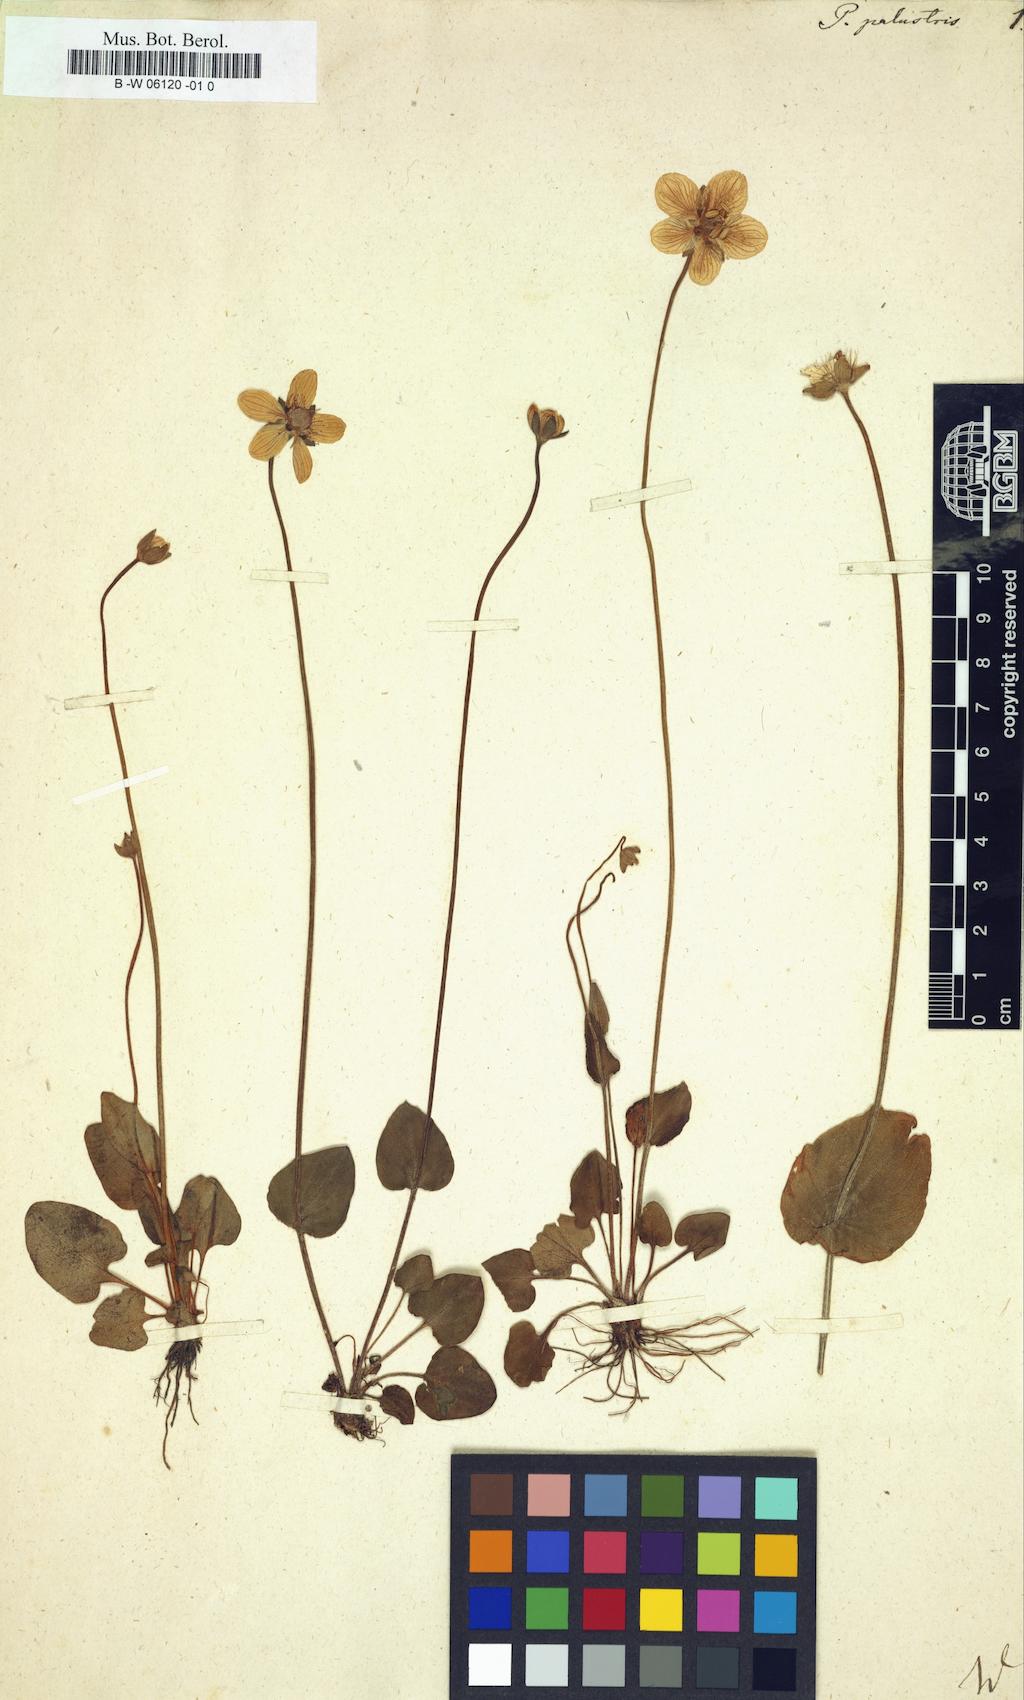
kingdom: Plantae
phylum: Tracheophyta
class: Magnoliopsida
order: Celastrales
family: Parnassiaceae
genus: Parnassia
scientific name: Parnassia palustris
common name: Grass-of-parnassus
